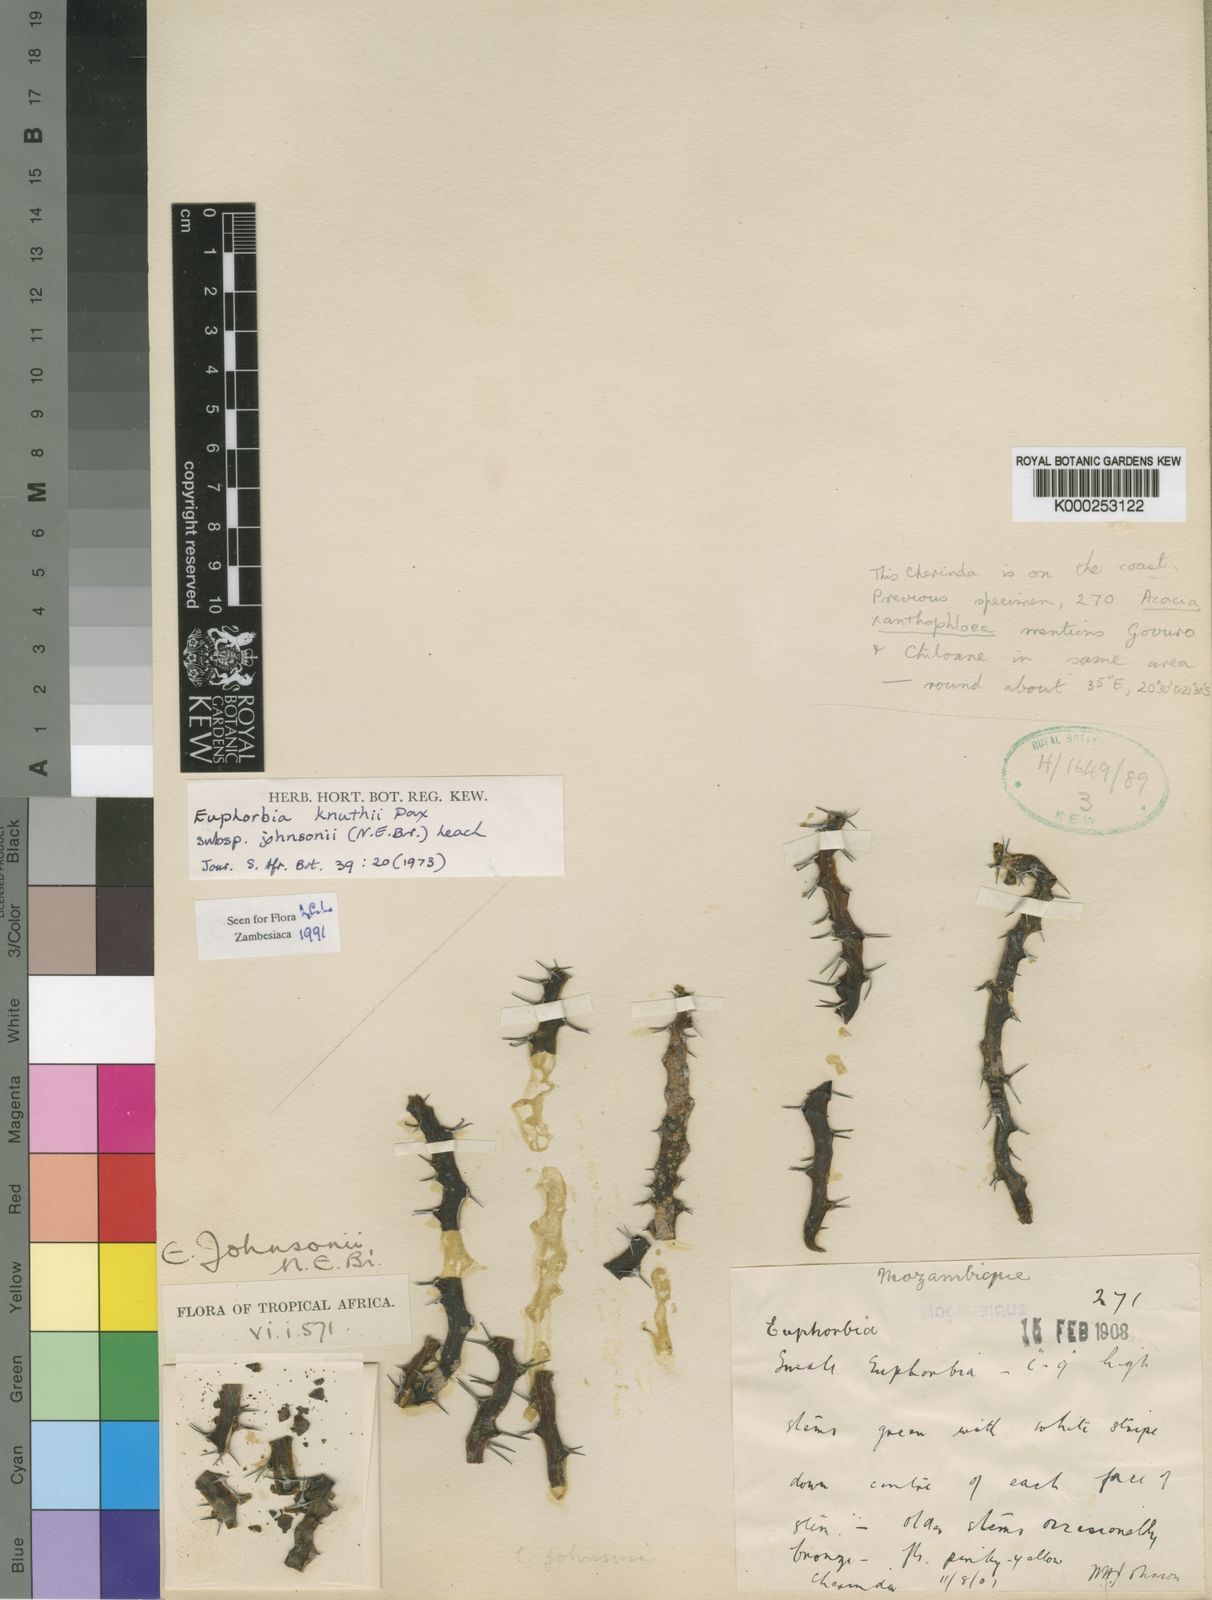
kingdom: Plantae
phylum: Tracheophyta
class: Magnoliopsida
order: Malpighiales
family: Euphorbiaceae
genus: Euphorbia
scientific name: Euphorbia knuthii
